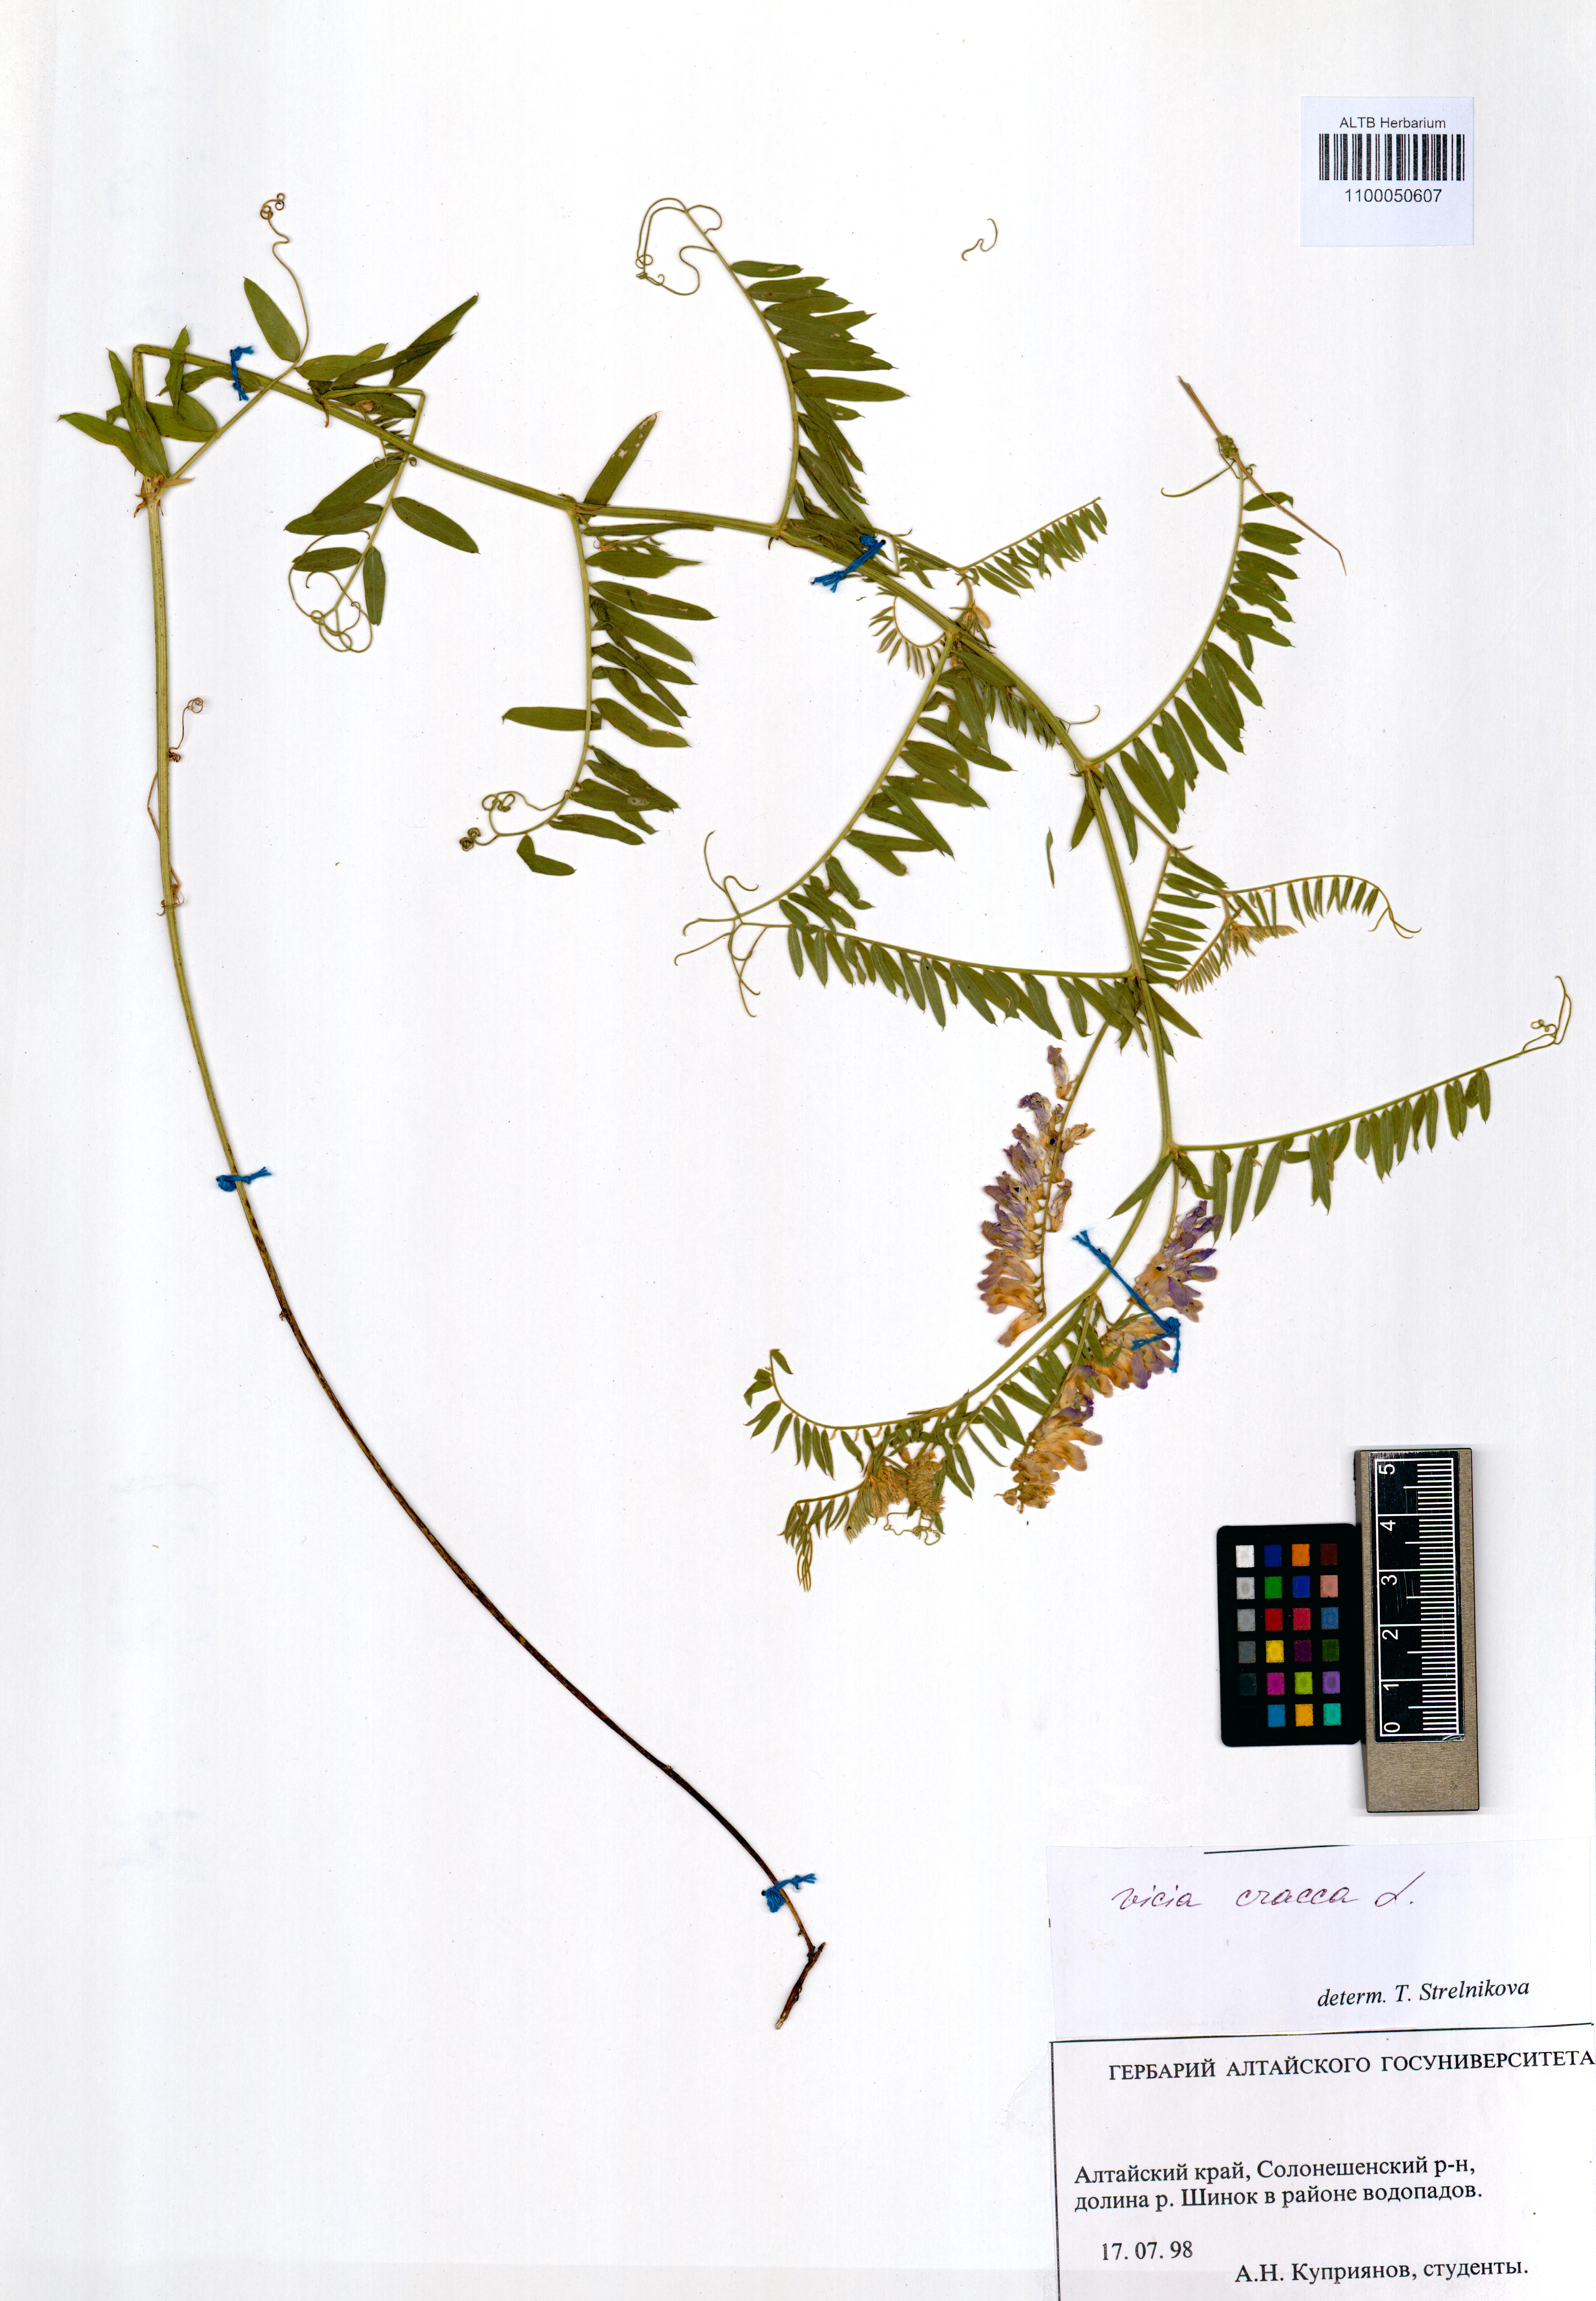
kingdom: Plantae
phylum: Tracheophyta
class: Magnoliopsida
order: Fabales
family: Fabaceae
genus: Vicia
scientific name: Vicia cracca
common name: Bird vetch
